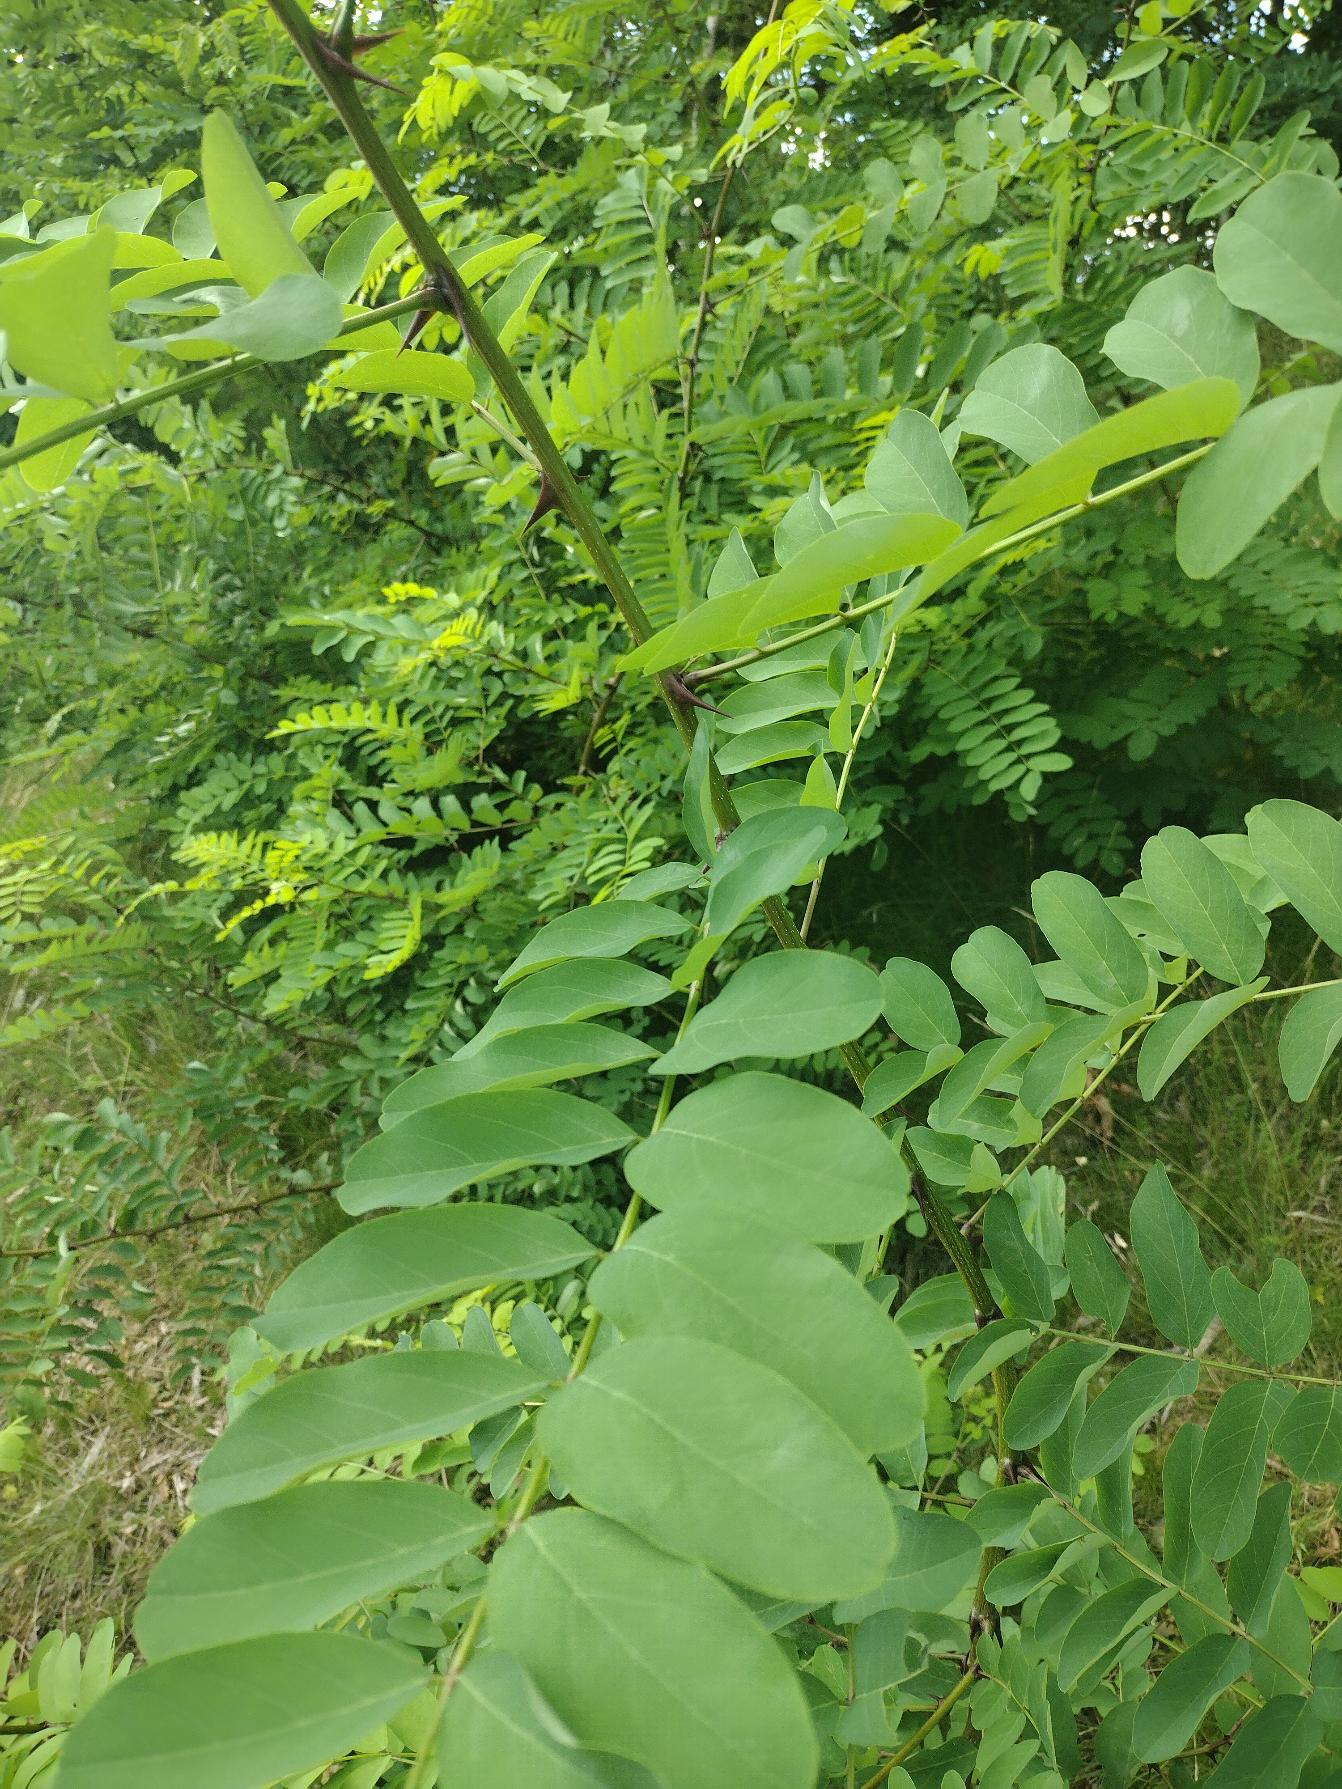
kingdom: Plantae
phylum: Tracheophyta
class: Magnoliopsida
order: Fabales
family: Fabaceae
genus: Robinia
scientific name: Robinia pseudoacacia
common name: Robinie
